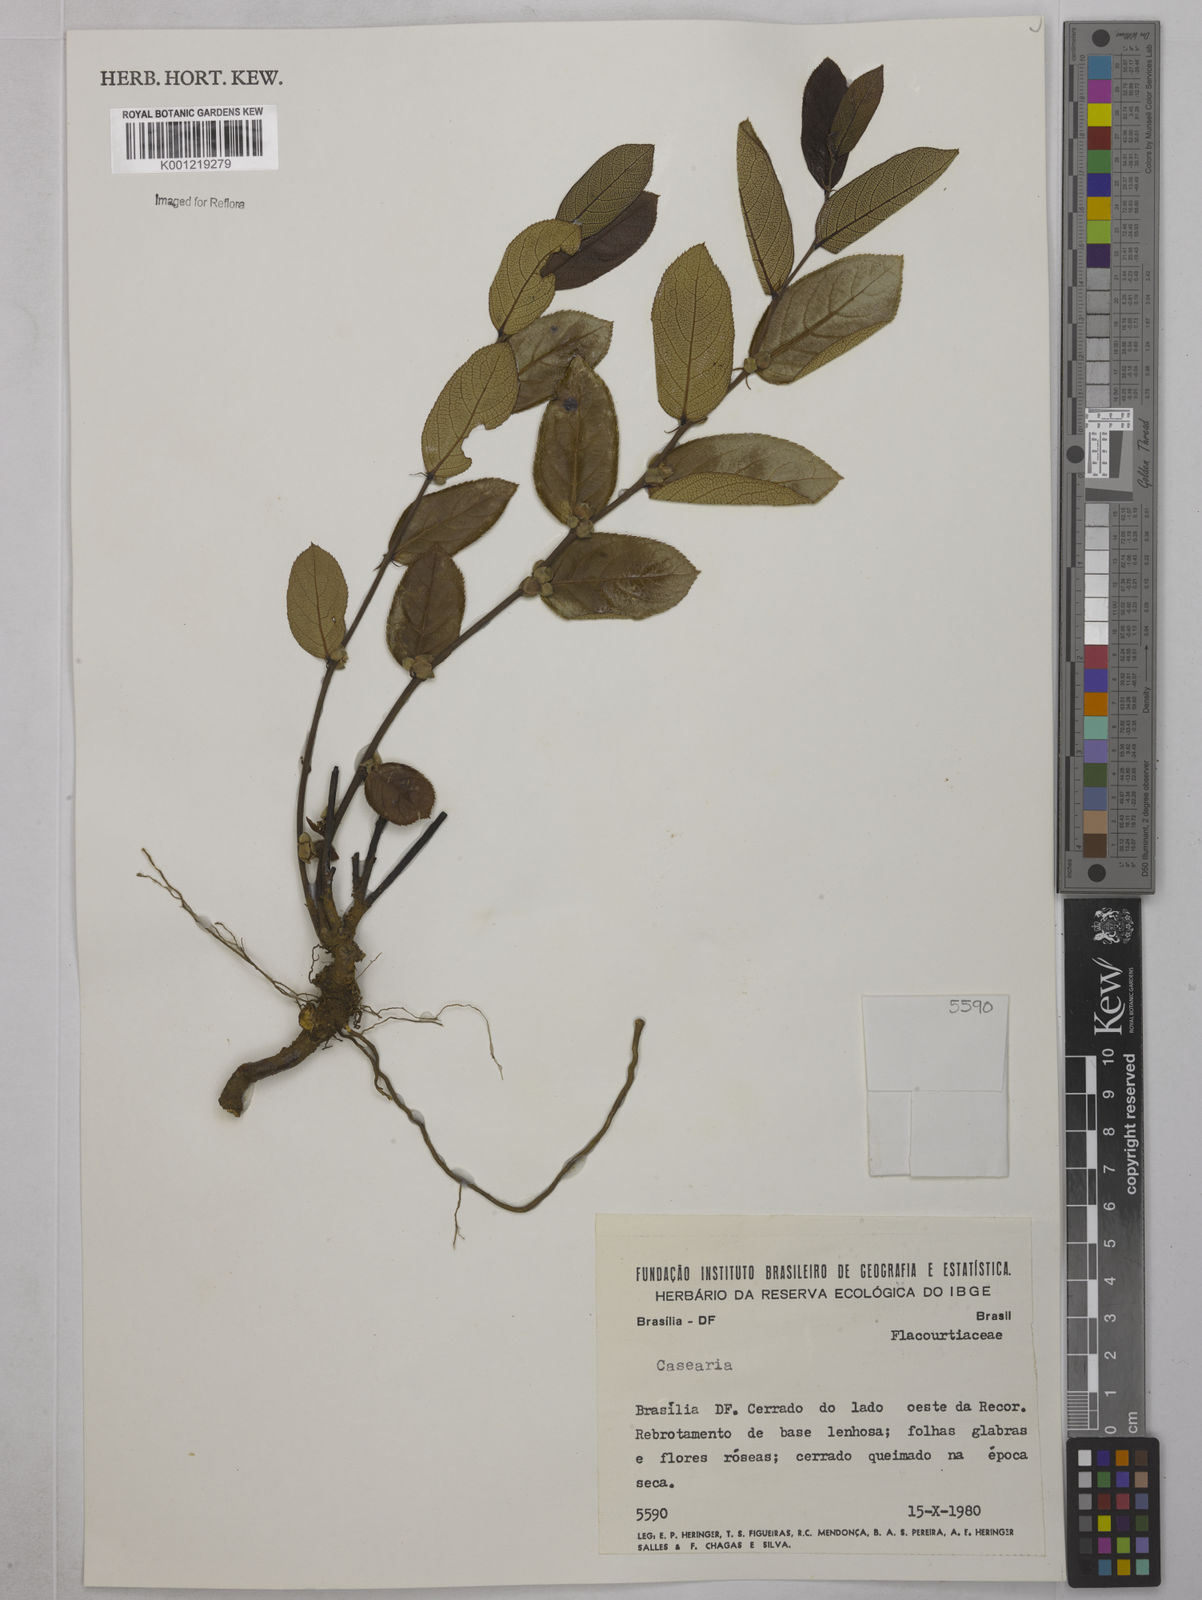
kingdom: Plantae
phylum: Tracheophyta
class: Magnoliopsida
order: Malpighiales
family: Salicaceae
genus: Casearia
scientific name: Casearia
